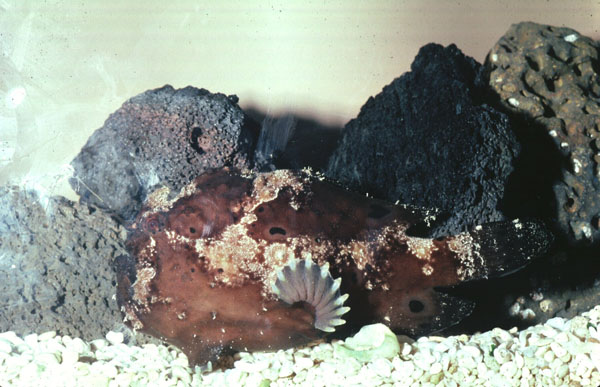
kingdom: Animalia
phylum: Chordata
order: Lophiiformes
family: Antennariidae
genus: Antennarius
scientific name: Antennarius pictus
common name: Painted frogfish
